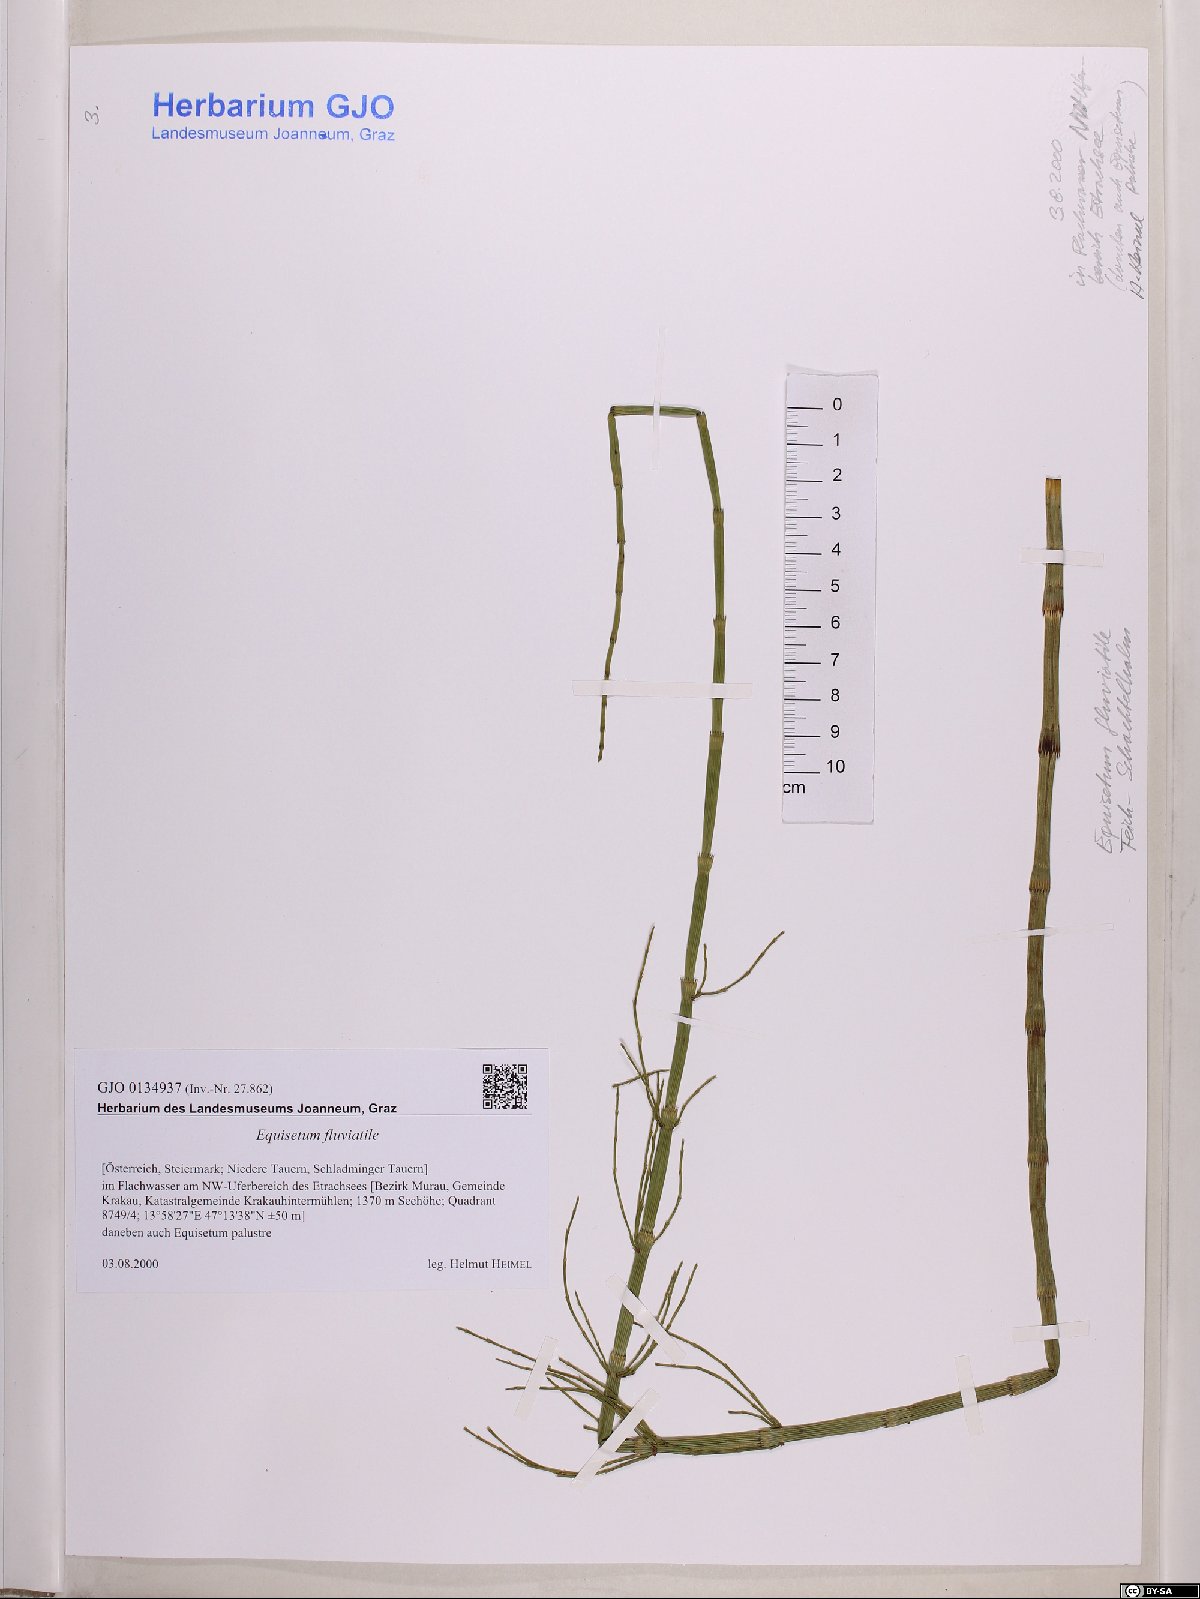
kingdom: Plantae
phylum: Tracheophyta
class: Polypodiopsida
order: Equisetales
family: Equisetaceae
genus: Equisetum
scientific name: Equisetum fluviatile
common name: Water horsetail
